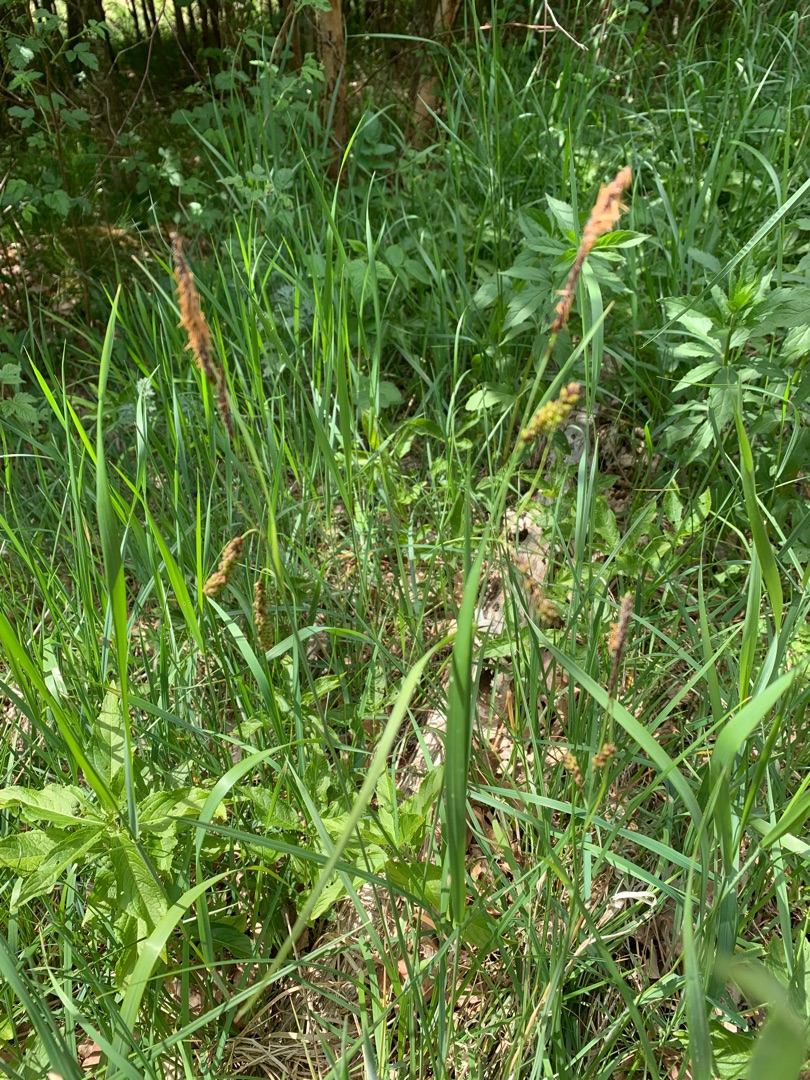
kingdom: Plantae
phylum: Tracheophyta
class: Liliopsida
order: Poales
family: Cyperaceae
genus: Carex
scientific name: Carex flacca
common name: Blågrøn star
